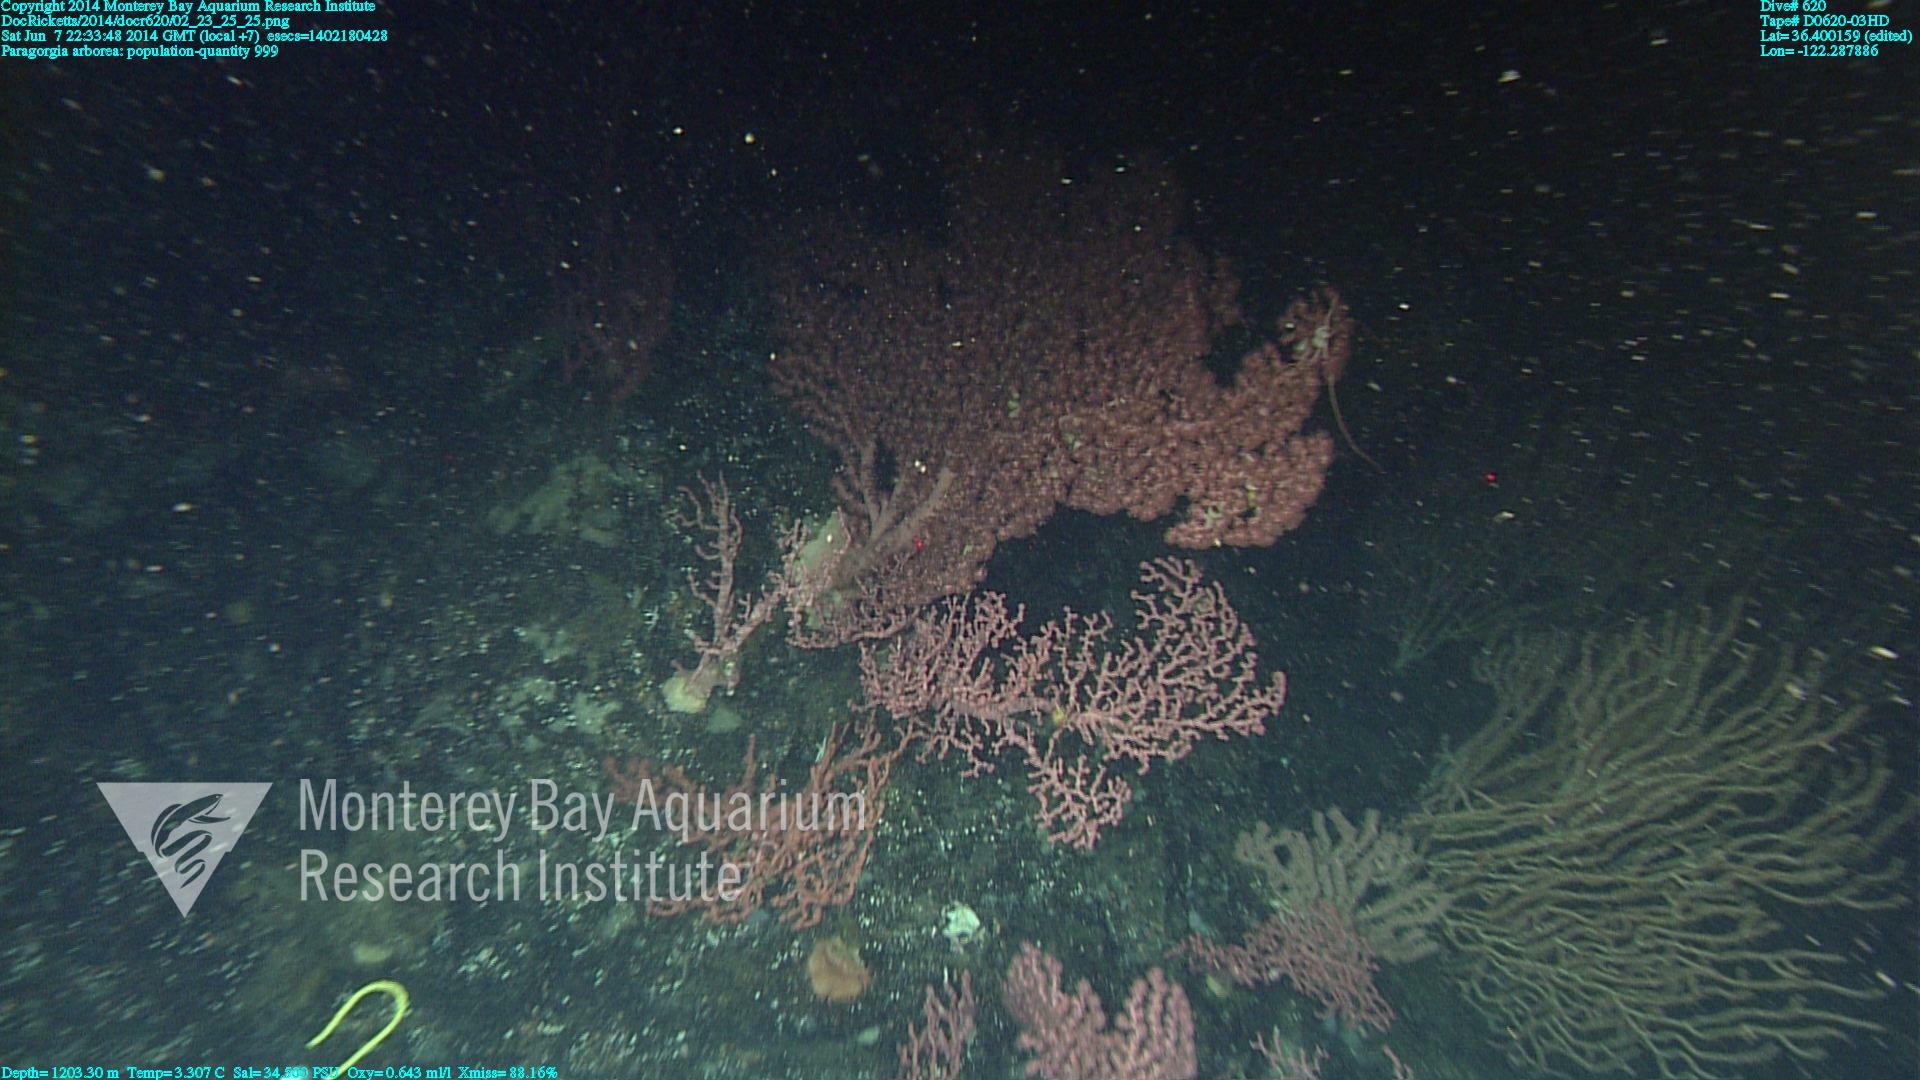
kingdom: Animalia
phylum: Cnidaria
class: Anthozoa
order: Scleralcyonacea
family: Coralliidae
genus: Paragorgia
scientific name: Paragorgia arborea
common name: Bubble gum coral
